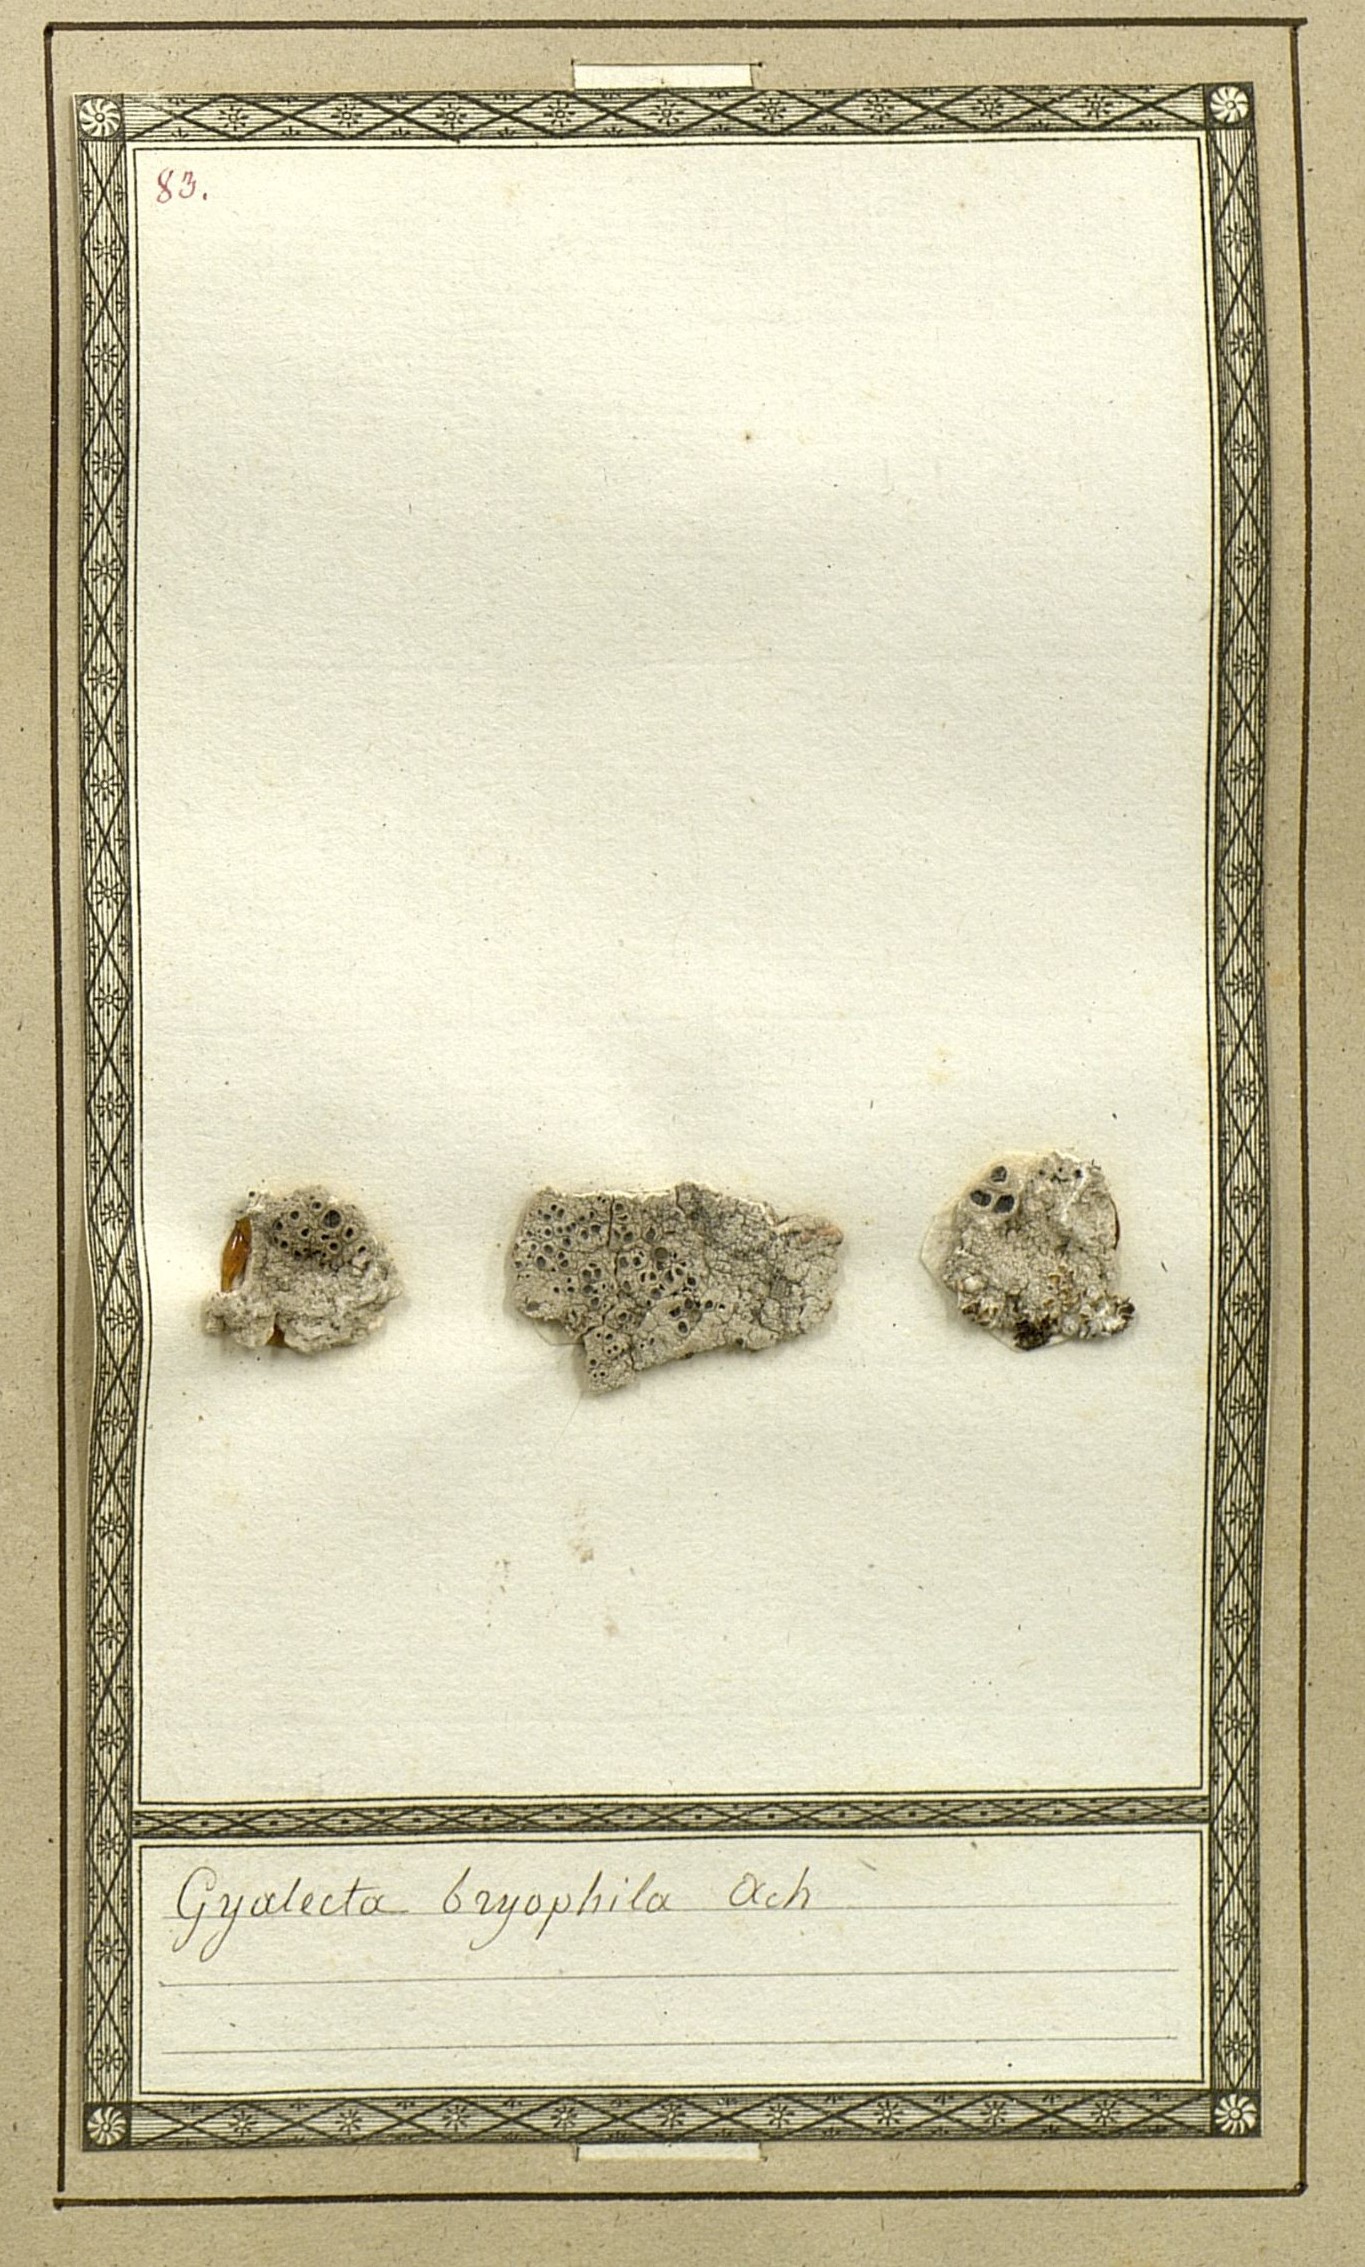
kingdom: Fungi
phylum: Ascomycota
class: Lecanoromycetes
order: Ostropales
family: Graphidaceae
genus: Diploschistes
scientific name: Diploschistes muscorum
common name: Cowpie lichen
